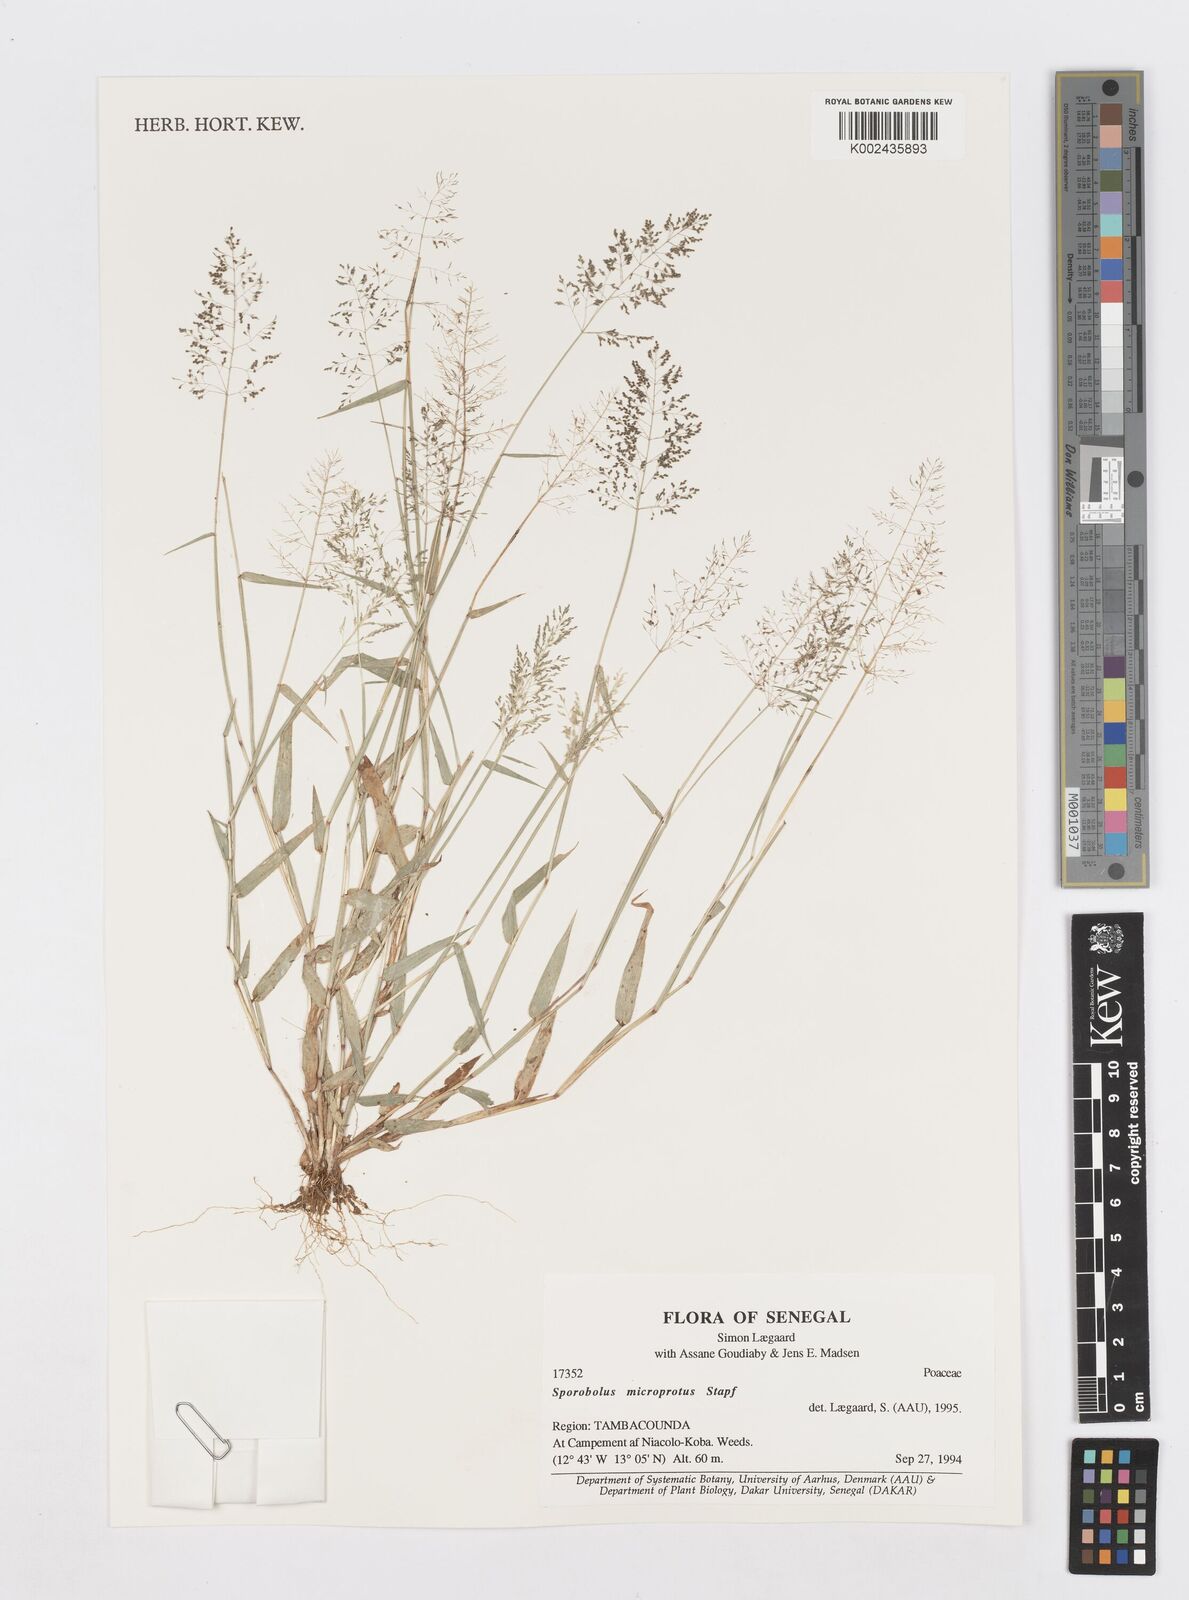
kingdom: Plantae
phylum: Tracheophyta
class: Liliopsida
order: Poales
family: Poaceae
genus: Sporobolus
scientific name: Sporobolus microprotus
